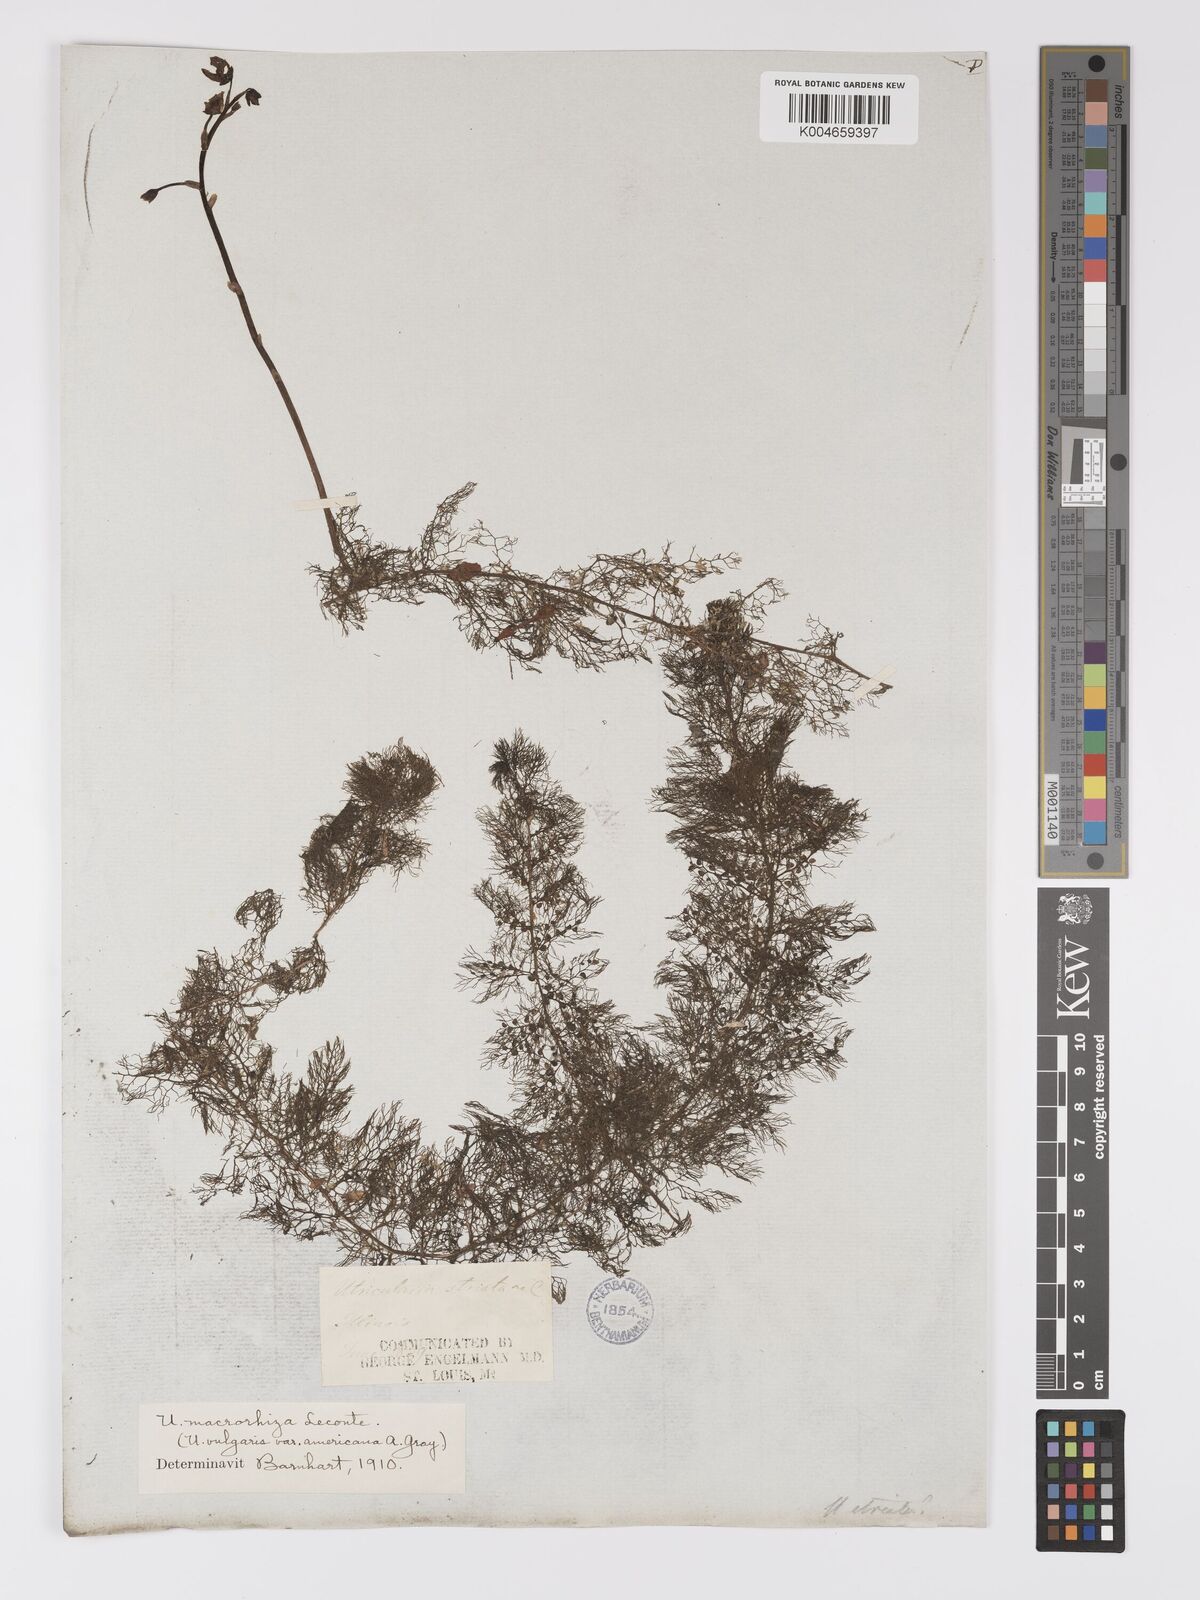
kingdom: Plantae
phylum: Tracheophyta
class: Magnoliopsida
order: Lamiales
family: Lentibulariaceae
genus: Utricularia
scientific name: Utricularia macrorhiza
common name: Common bladderwort
